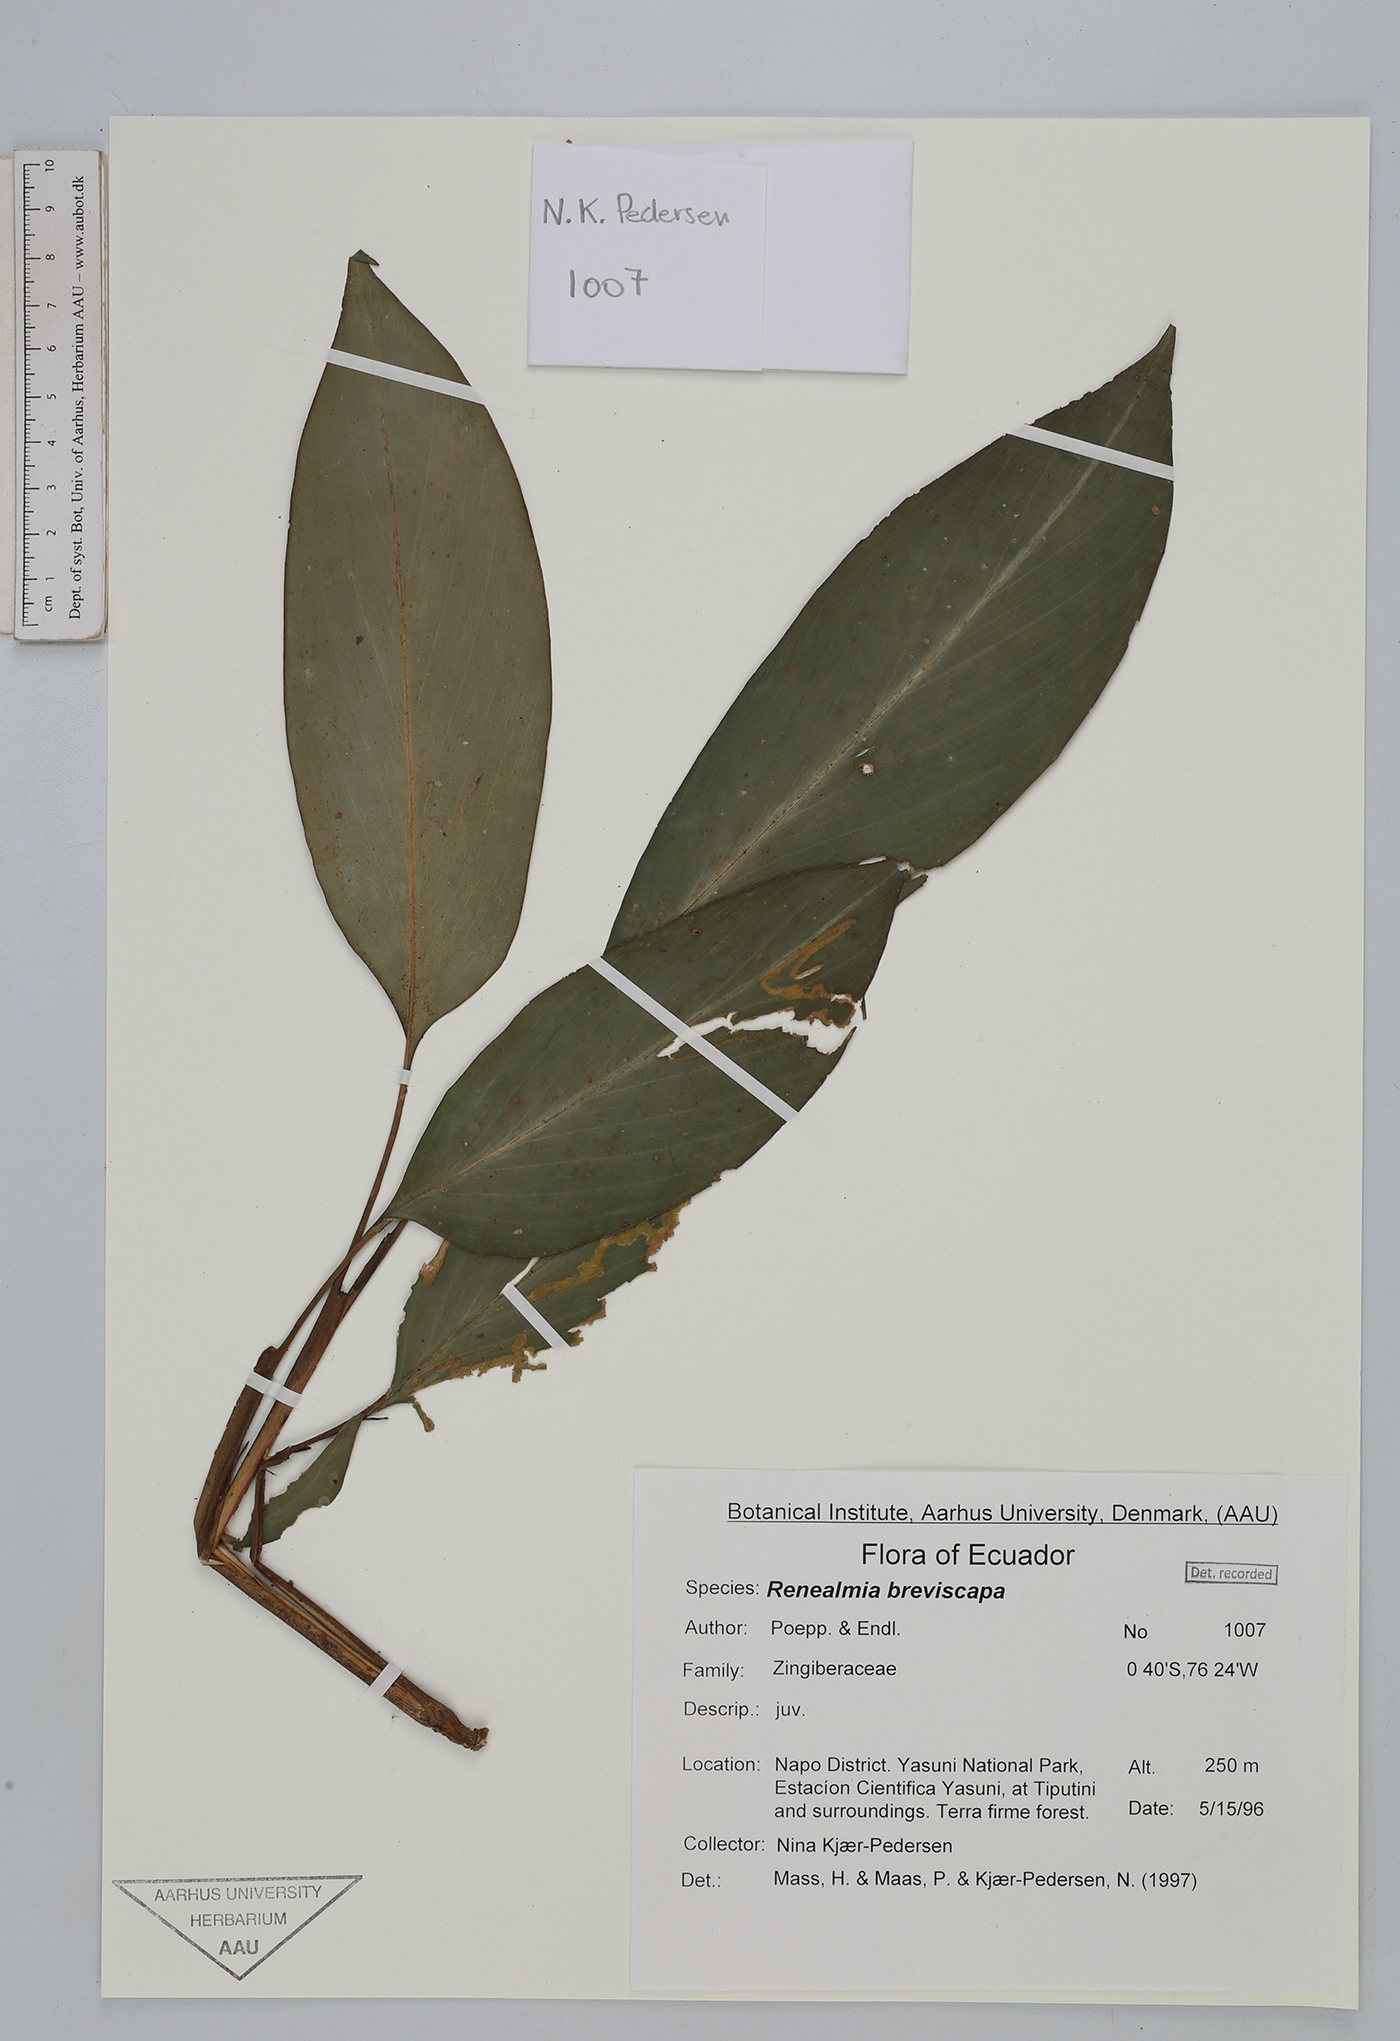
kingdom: Plantae
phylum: Tracheophyta
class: Liliopsida
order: Zingiberales
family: Zingiberaceae
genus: Renealmia
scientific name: Renealmia breviscapa
